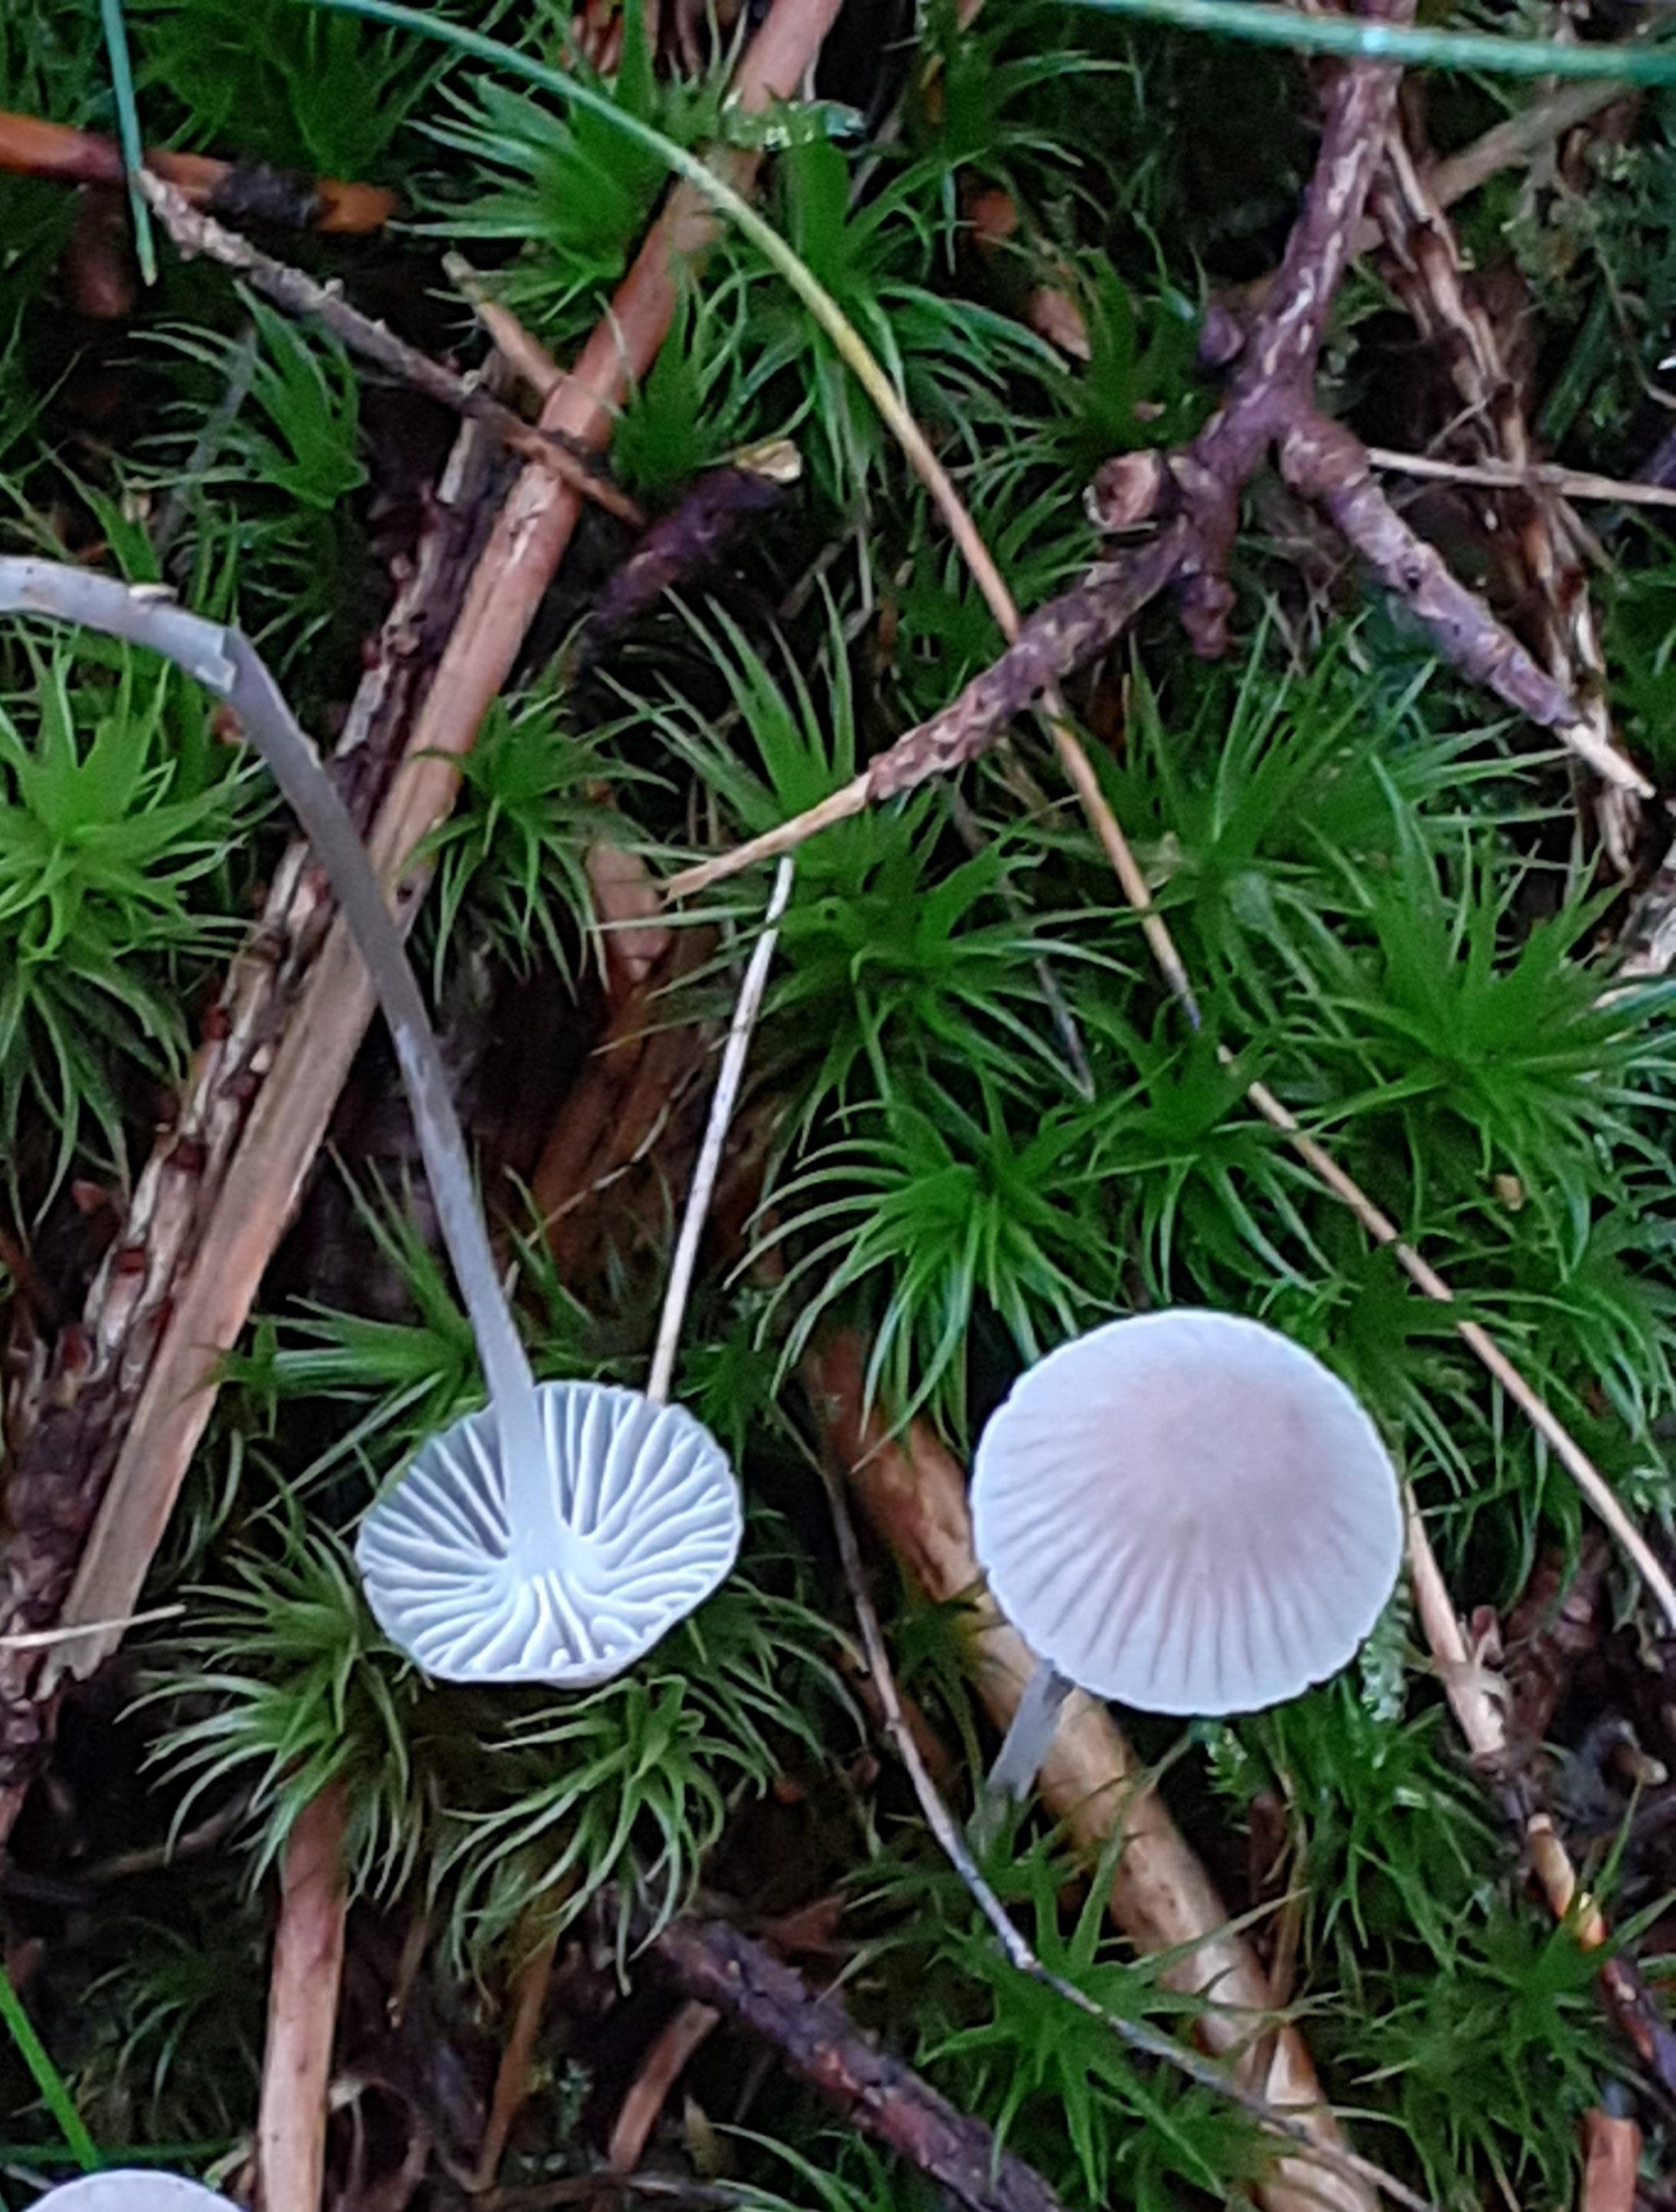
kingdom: Fungi
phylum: Basidiomycota
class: Agaricomycetes
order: Agaricales
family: Mycenaceae
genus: Mycena
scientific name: Mycena cinerella
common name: mel-huesvamp
